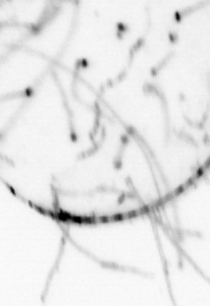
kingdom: Animalia
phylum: Cnidaria
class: Hydrozoa
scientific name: Hydrozoa
